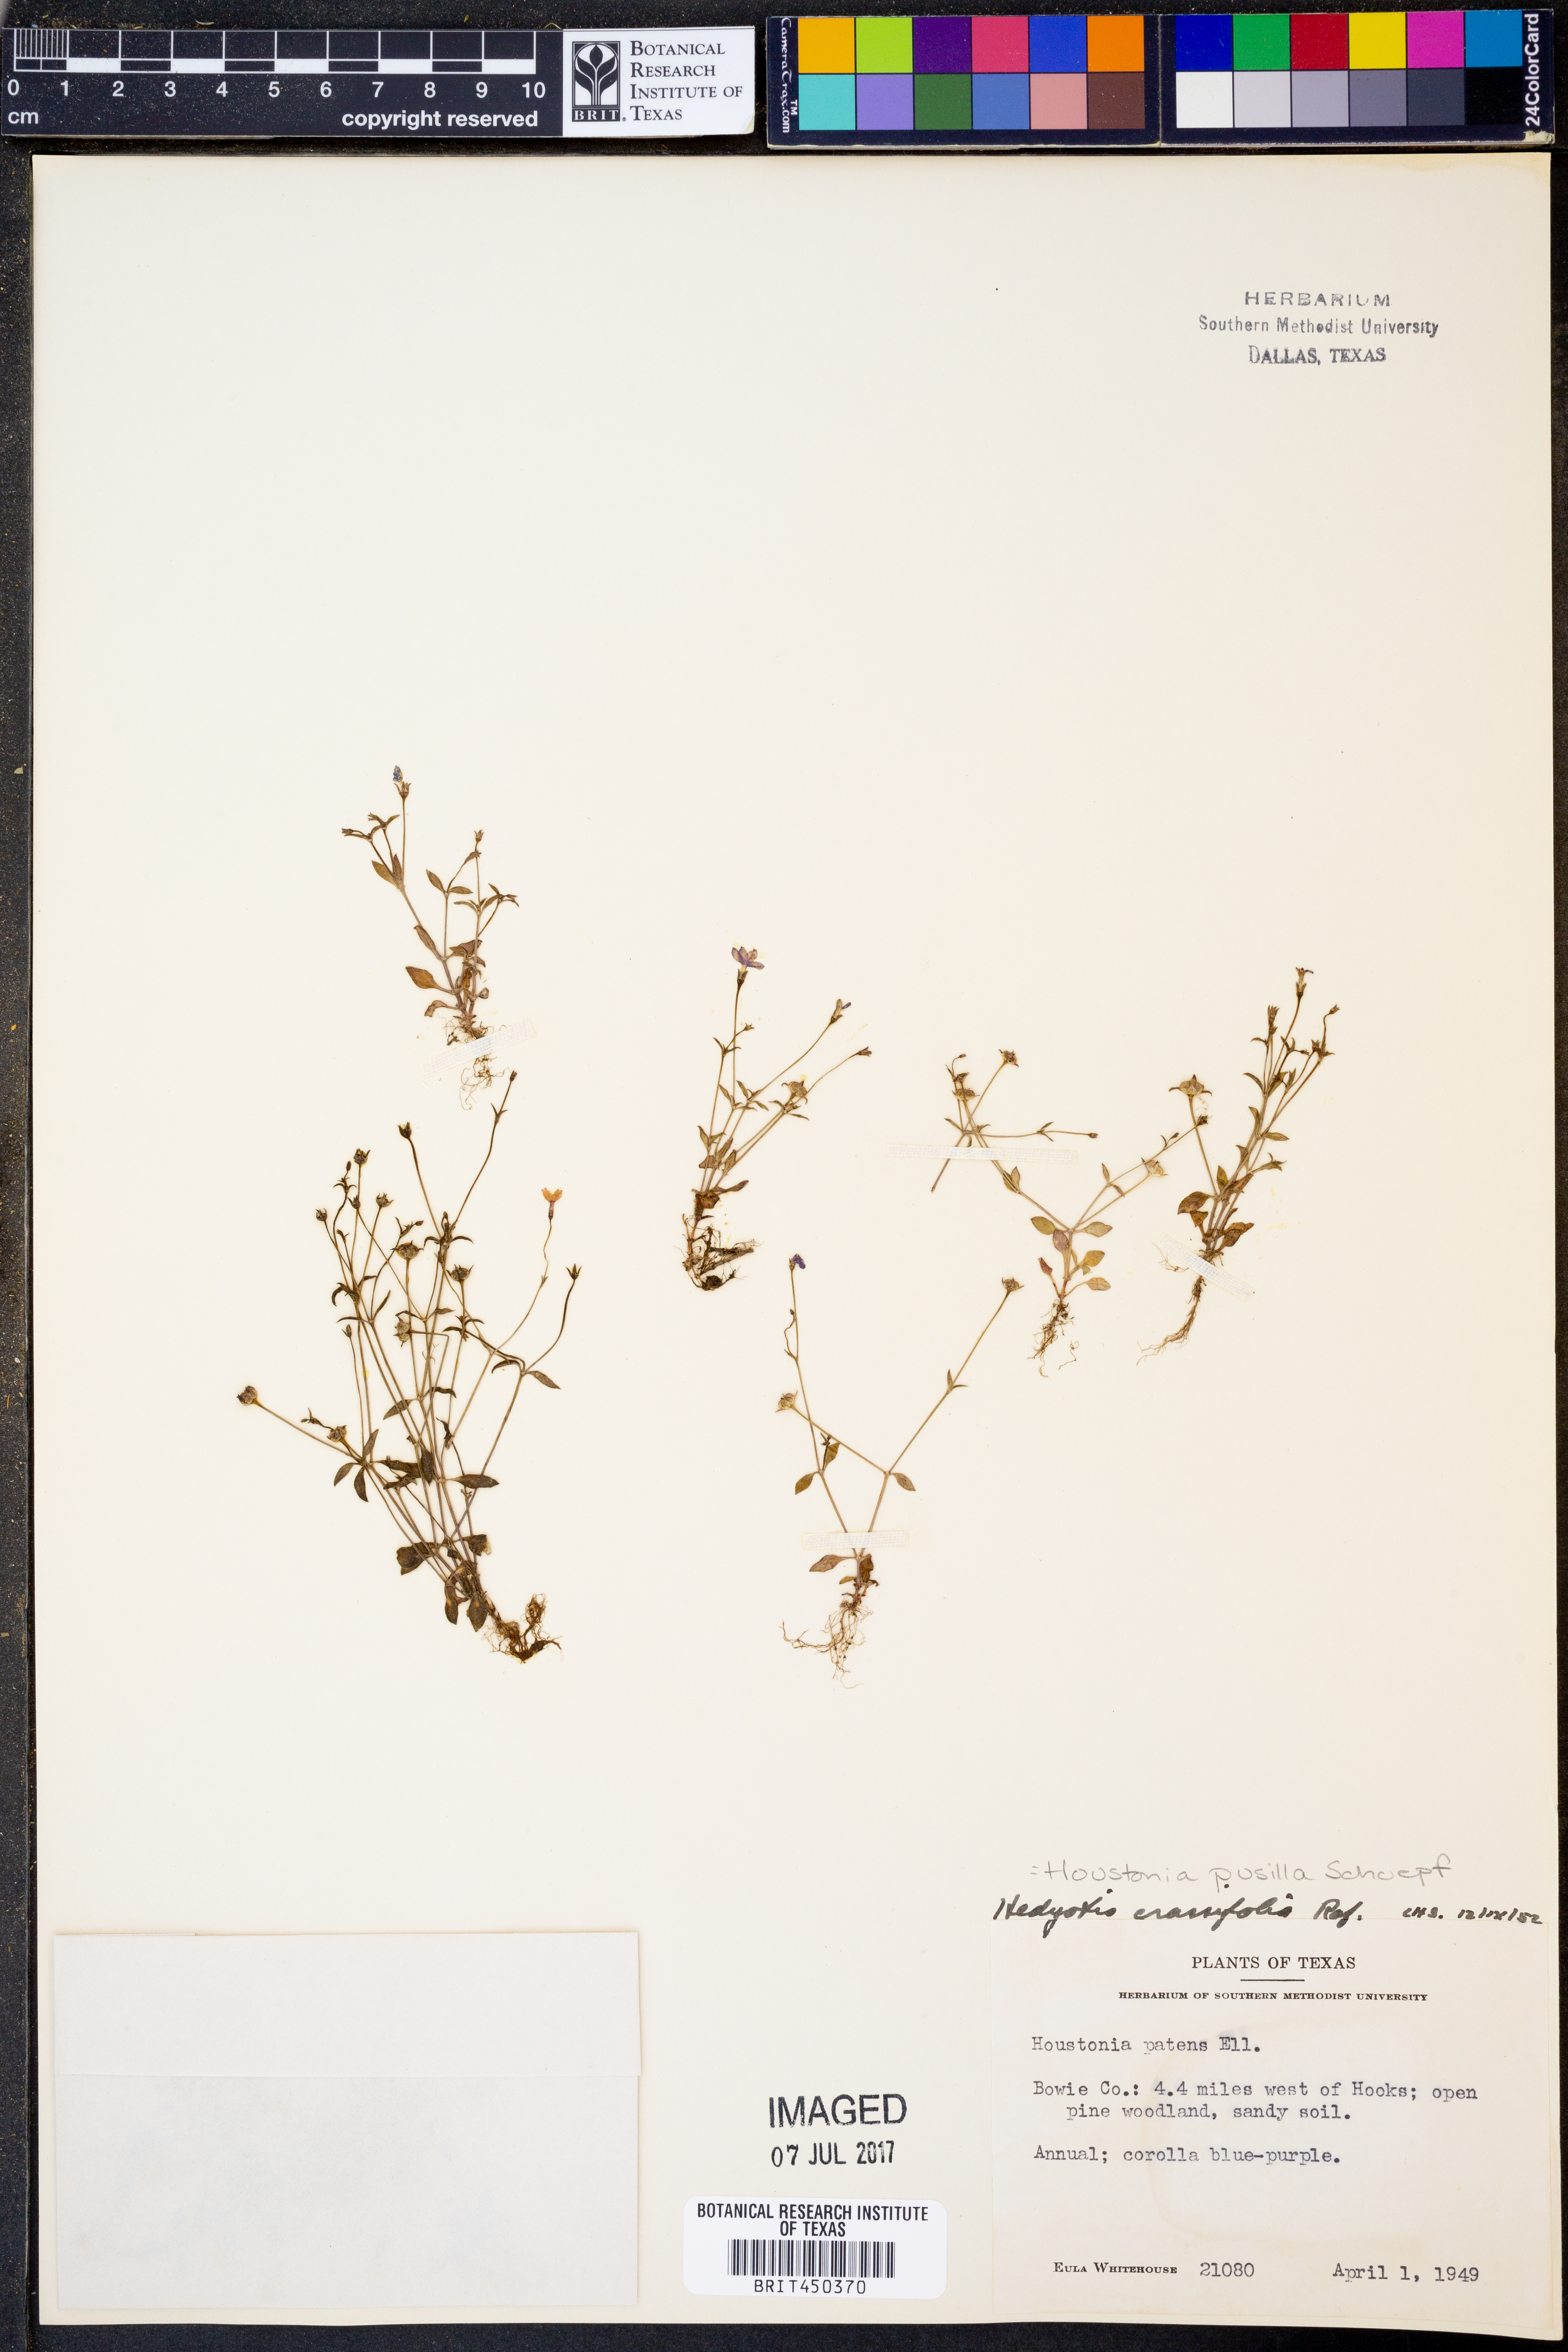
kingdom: Plantae
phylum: Tracheophyta
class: Magnoliopsida
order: Gentianales
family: Rubiaceae
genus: Houstonia
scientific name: Houstonia pusilla
